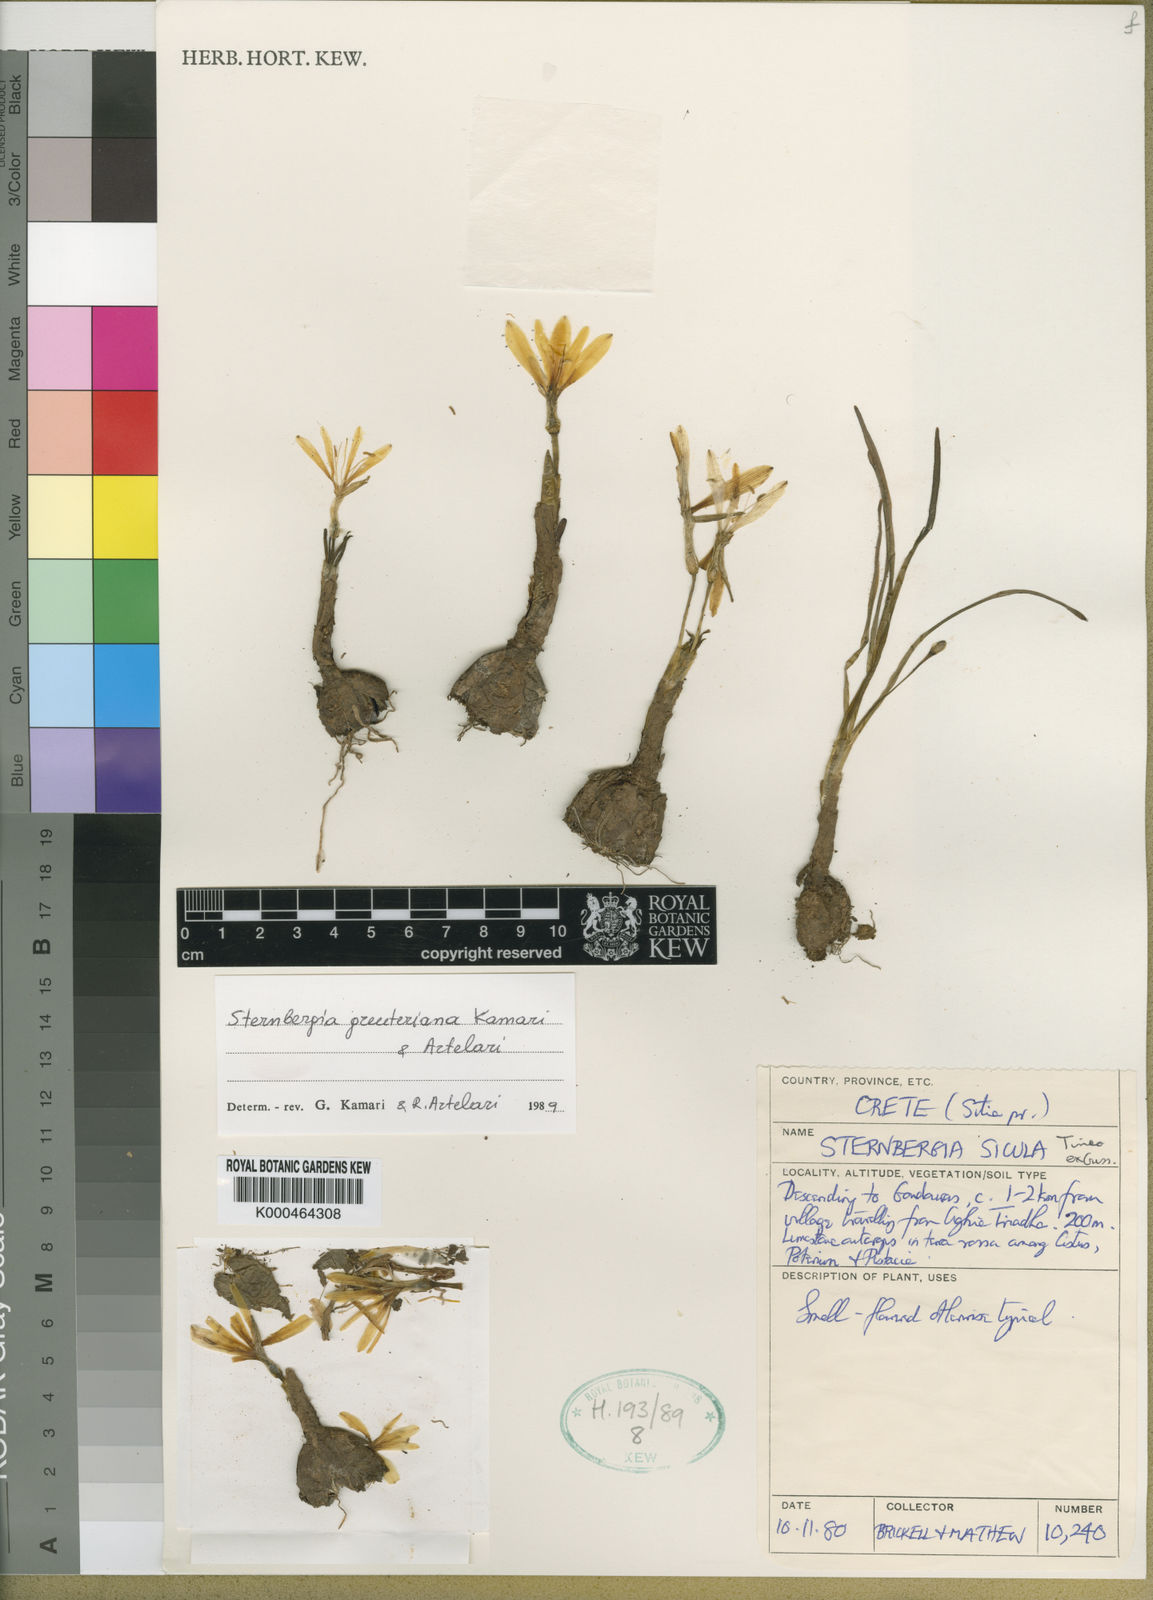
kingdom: Plantae
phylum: Tracheophyta
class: Liliopsida
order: Asparagales
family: Amaryllidaceae
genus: Sternbergia
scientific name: Sternbergia lutea
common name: Winter daffodil
